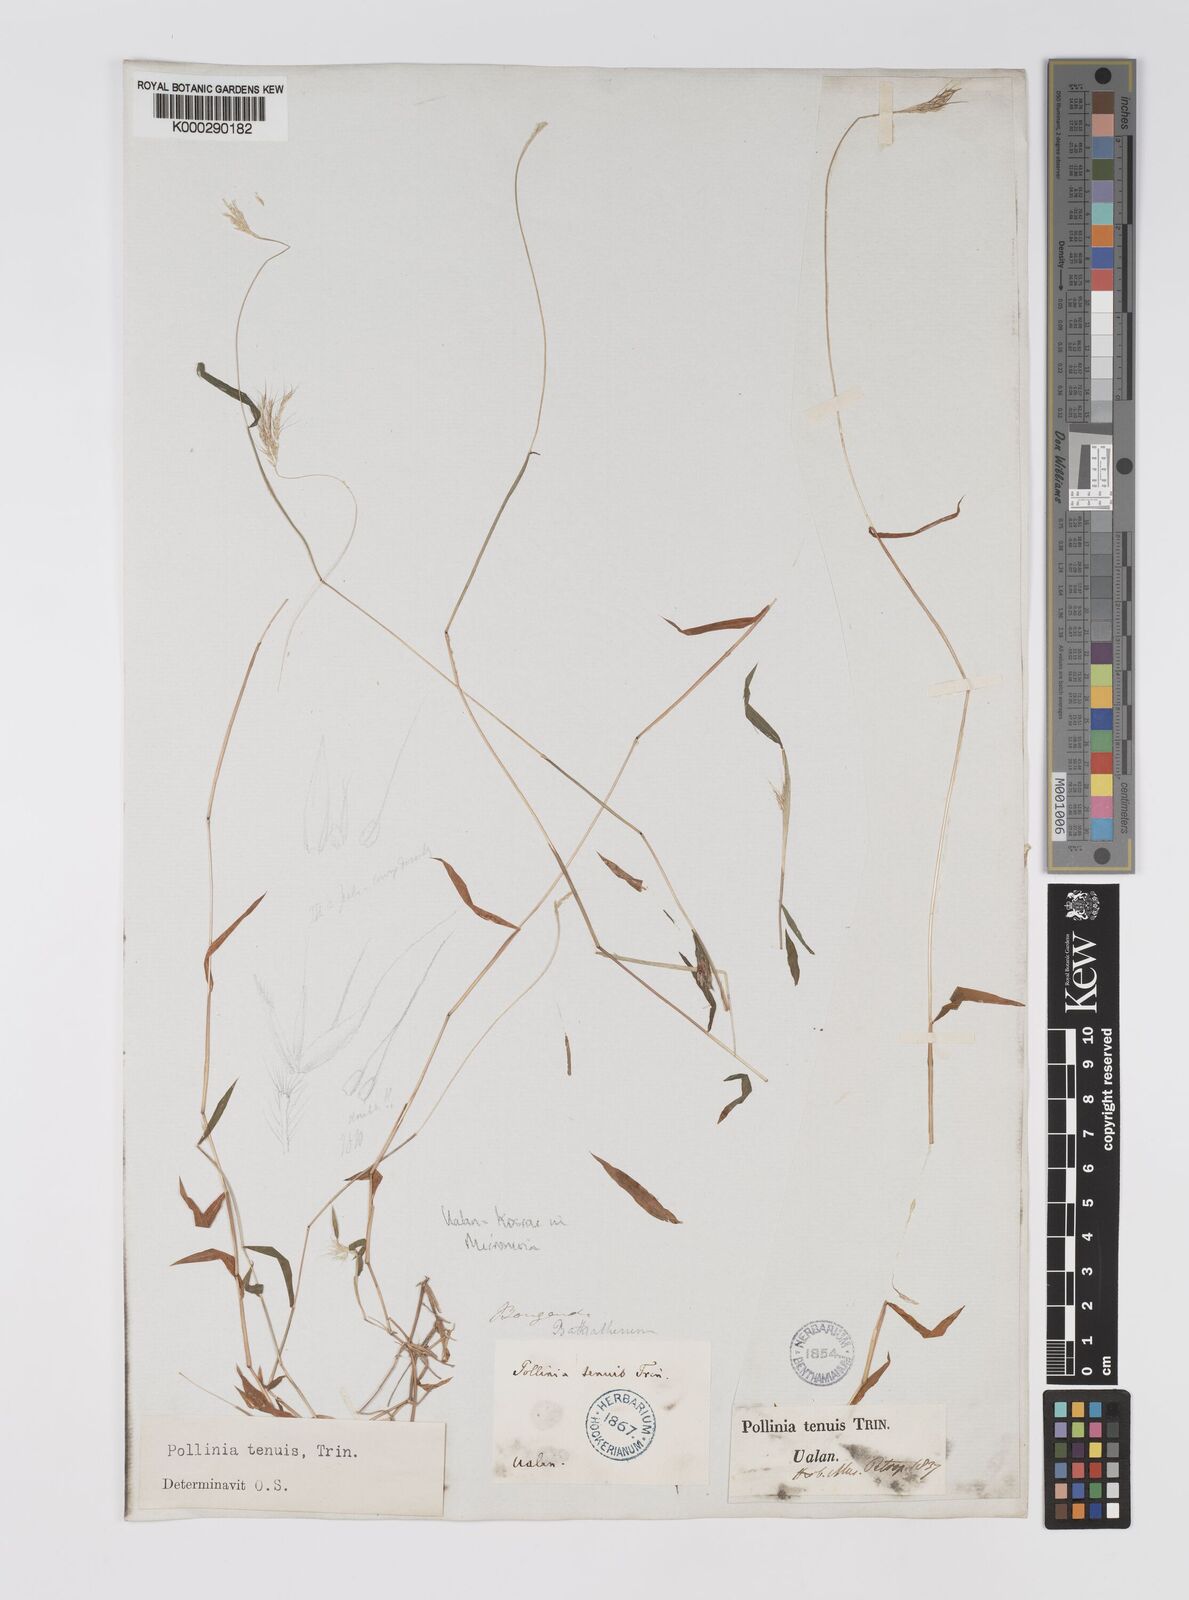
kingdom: Plantae
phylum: Tracheophyta
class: Liliopsida
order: Poales
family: Poaceae
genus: Microstegium
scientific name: Microstegium tenue
